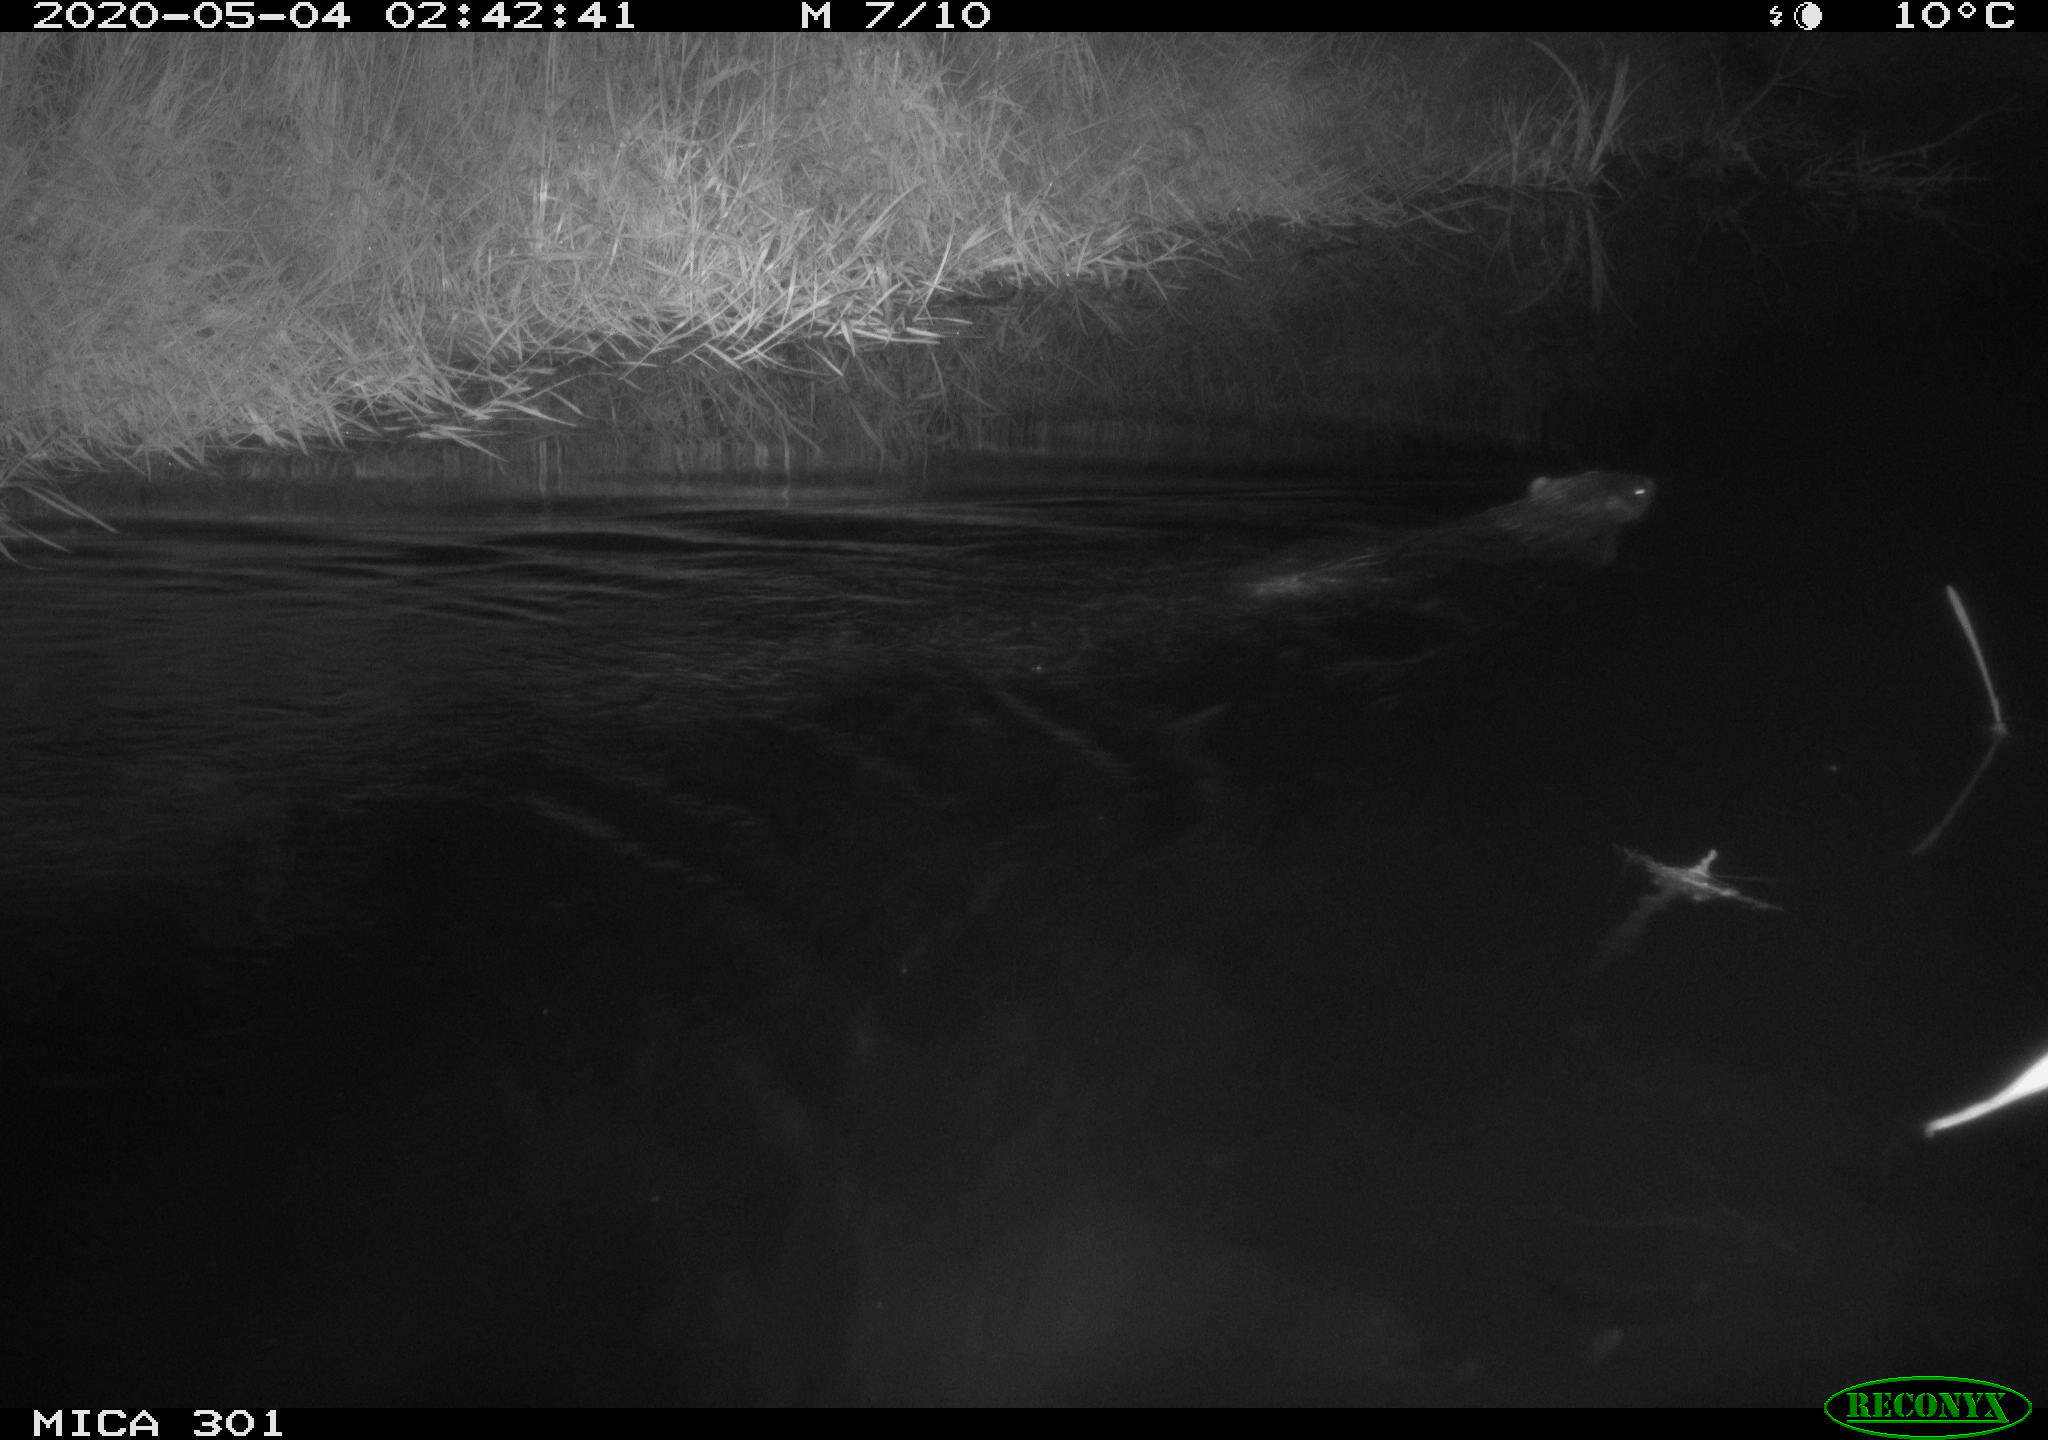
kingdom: Animalia
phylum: Chordata
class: Mammalia
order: Rodentia
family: Castoridae
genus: Castor
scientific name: Castor fiber
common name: Eurasian beaver
